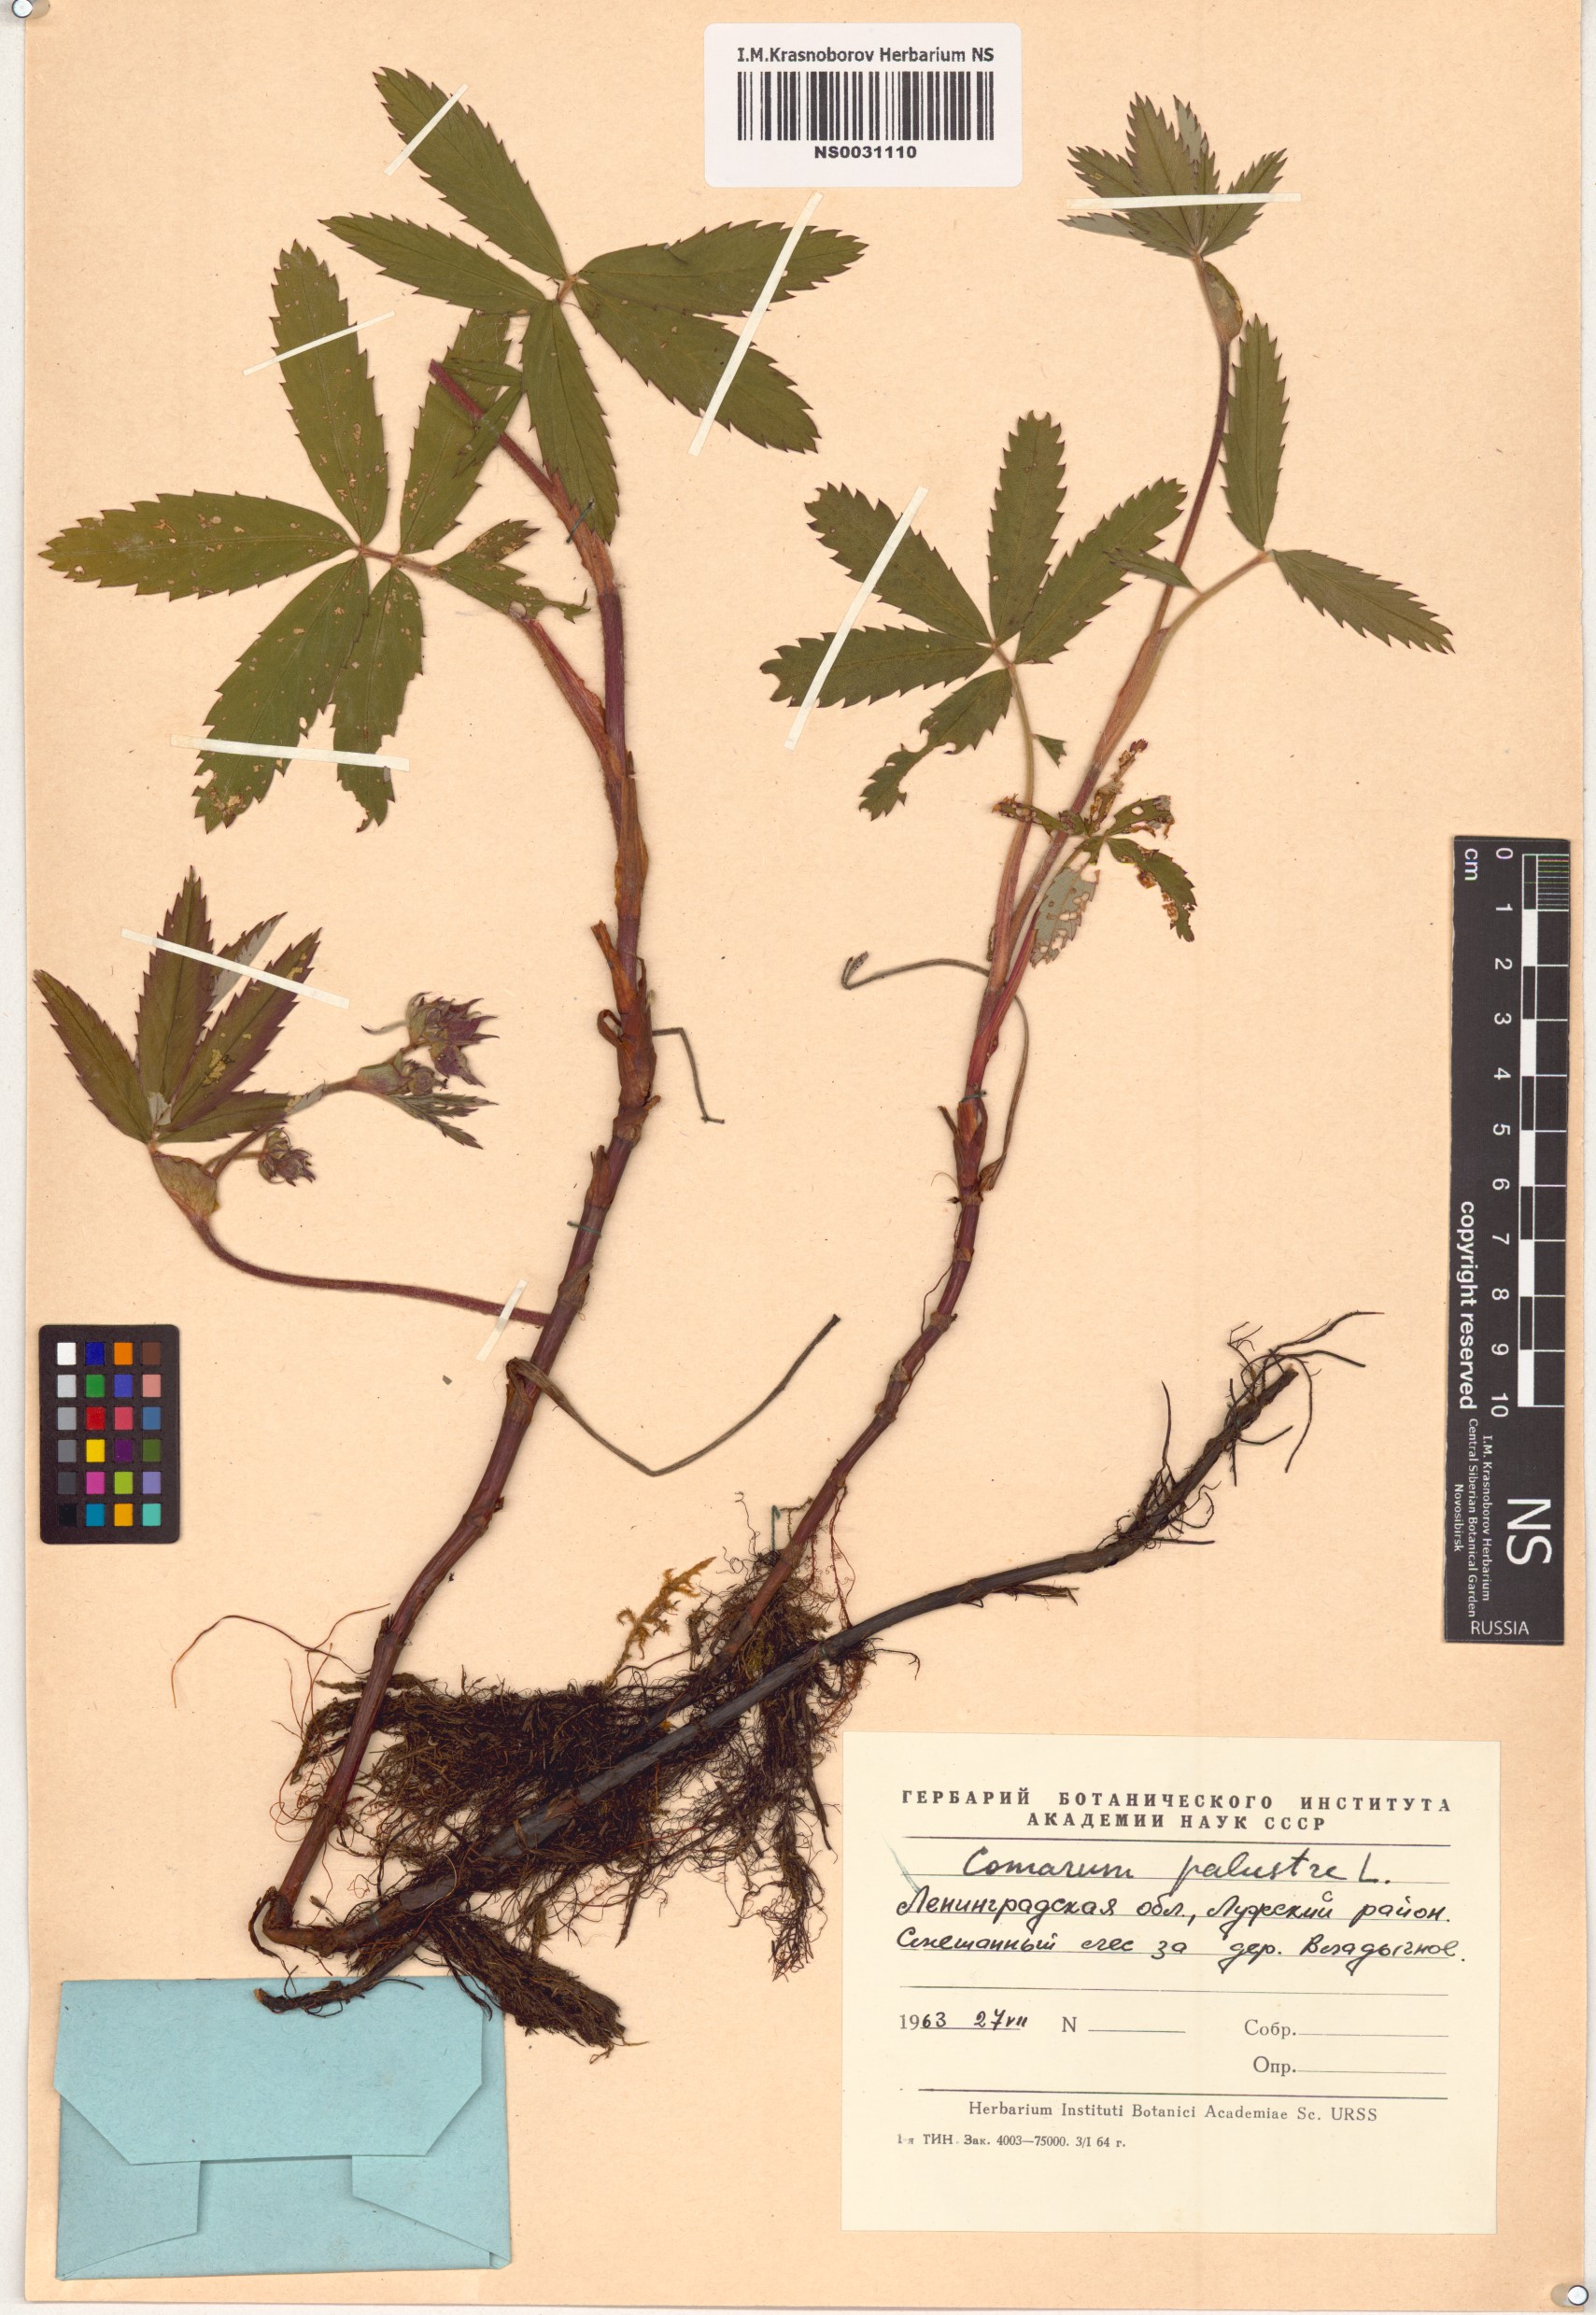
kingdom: Plantae
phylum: Tracheophyta
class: Magnoliopsida
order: Rosales
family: Rosaceae
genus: Comarum
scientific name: Comarum palustre
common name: Marsh cinquefoil
